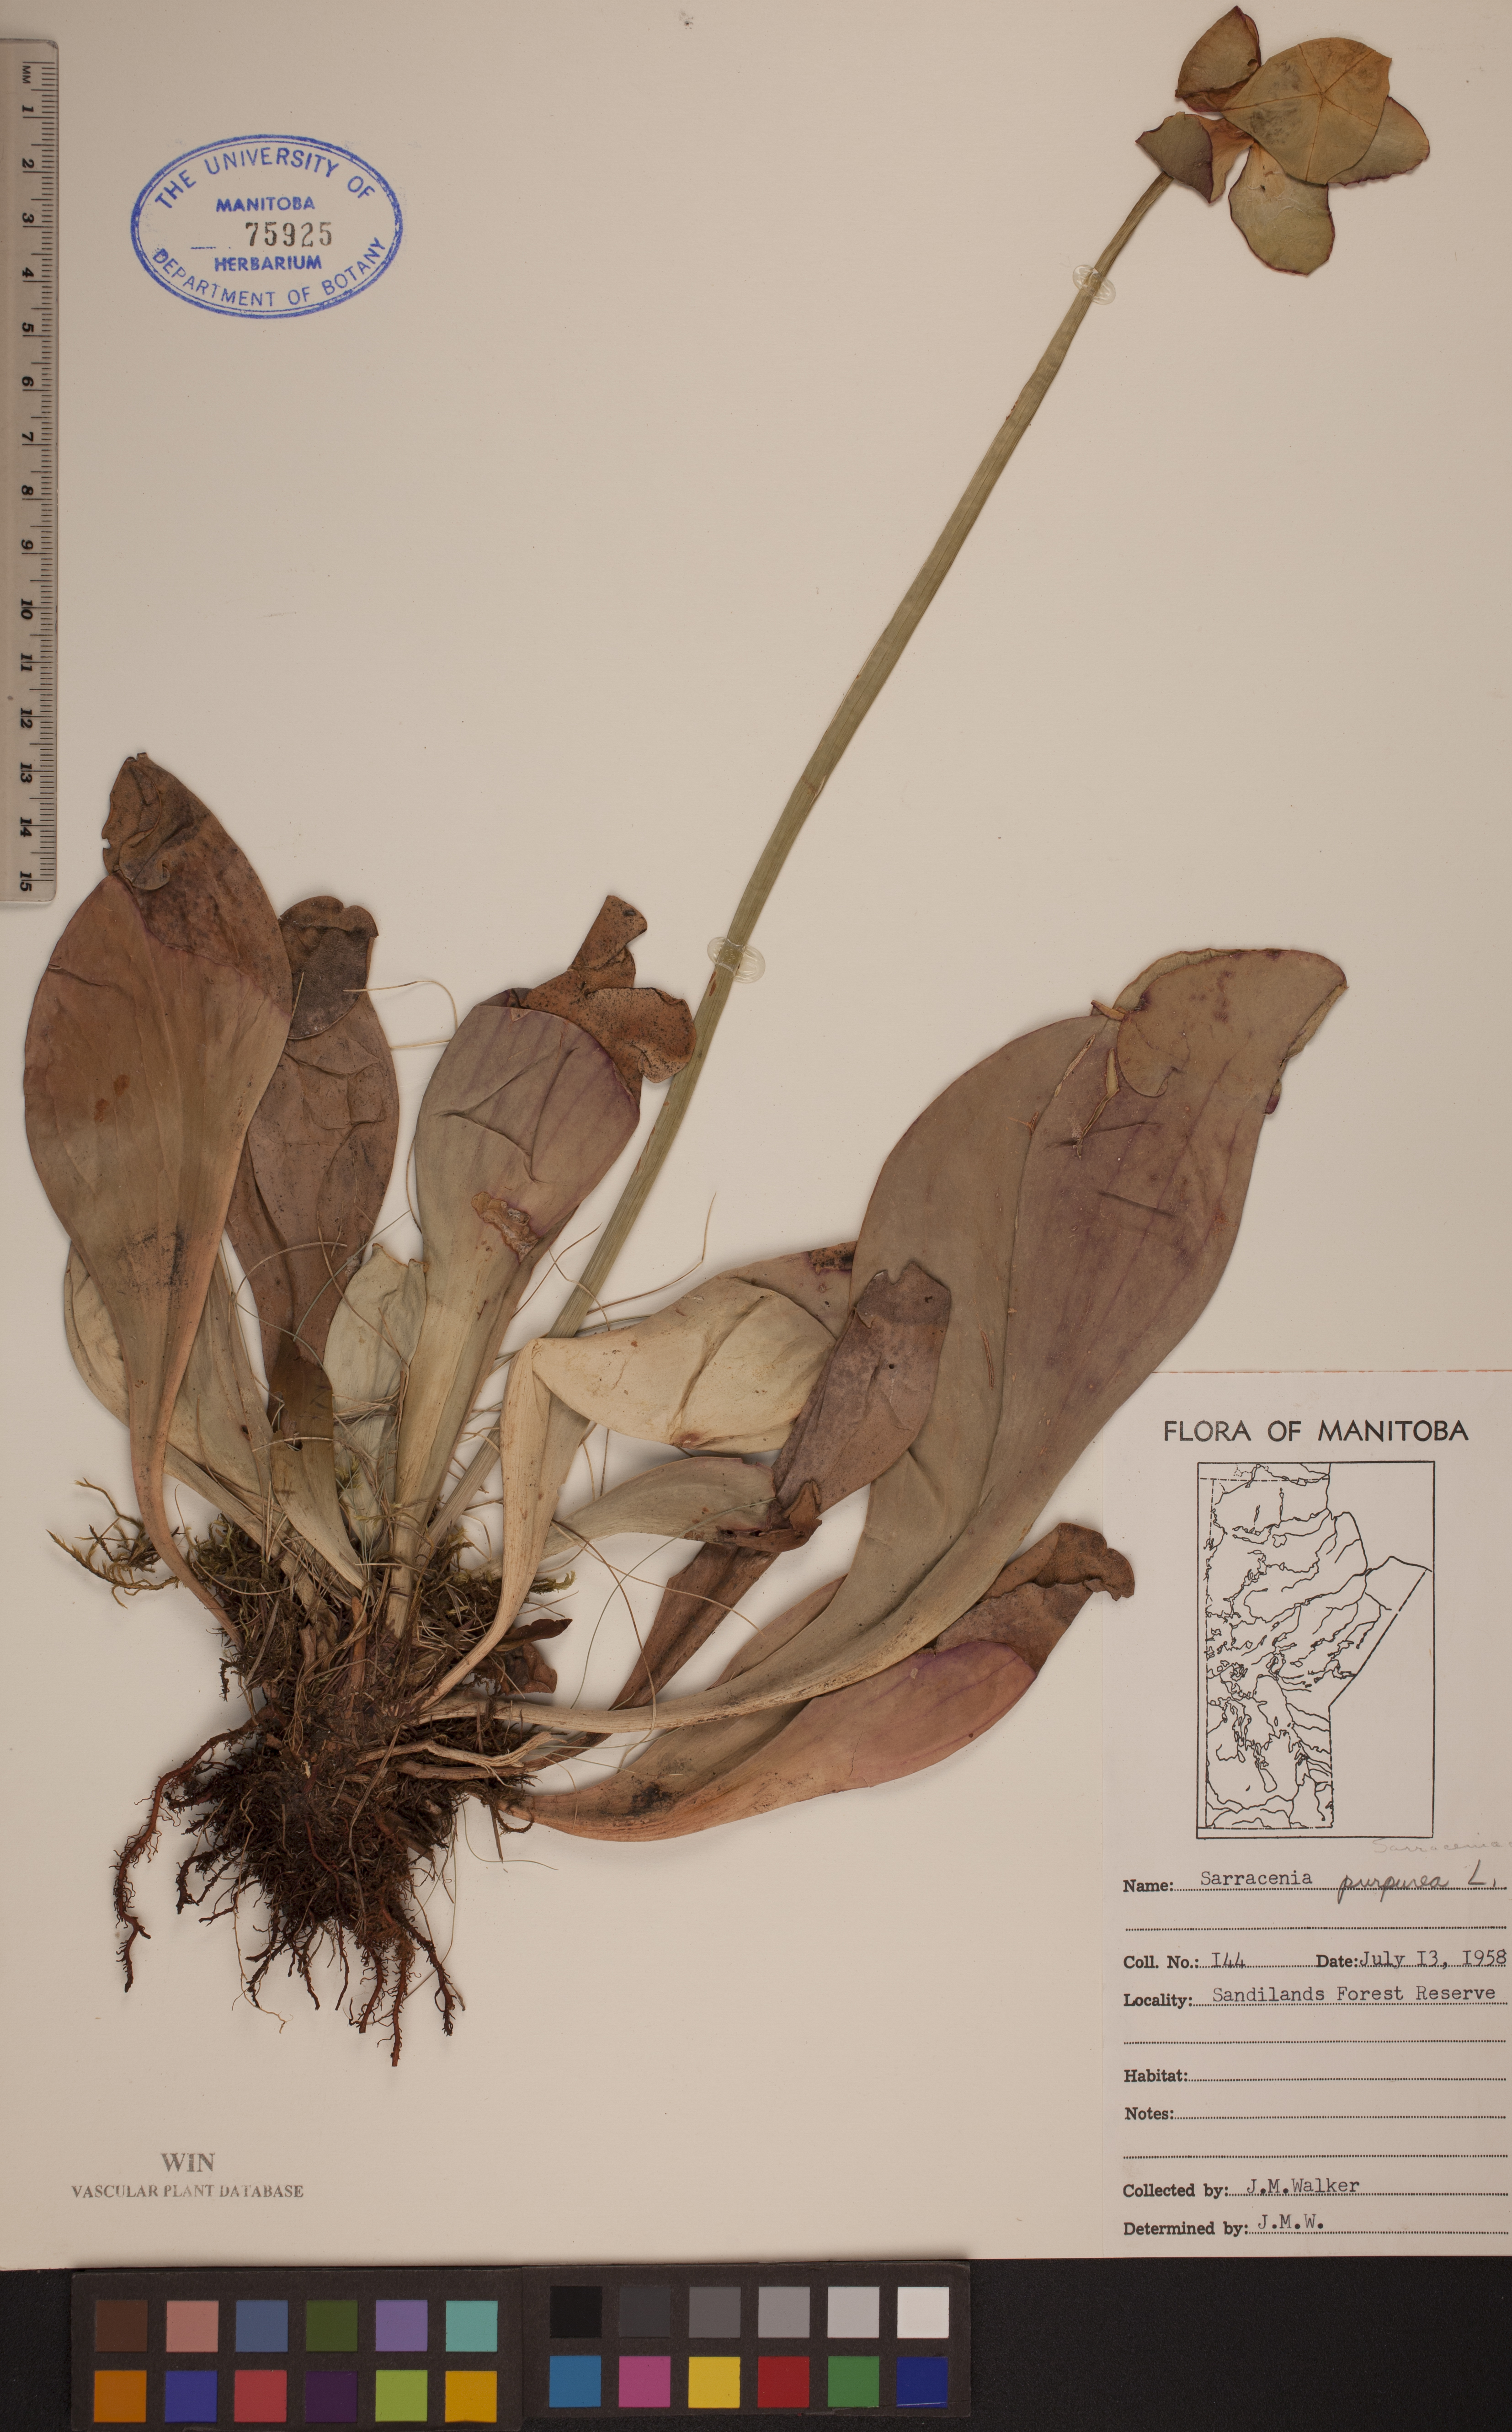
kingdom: Plantae
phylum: Tracheophyta
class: Magnoliopsida
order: Ericales
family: Sarraceniaceae
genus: Sarracenia
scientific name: Sarracenia purpurea
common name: Pitcherplant
